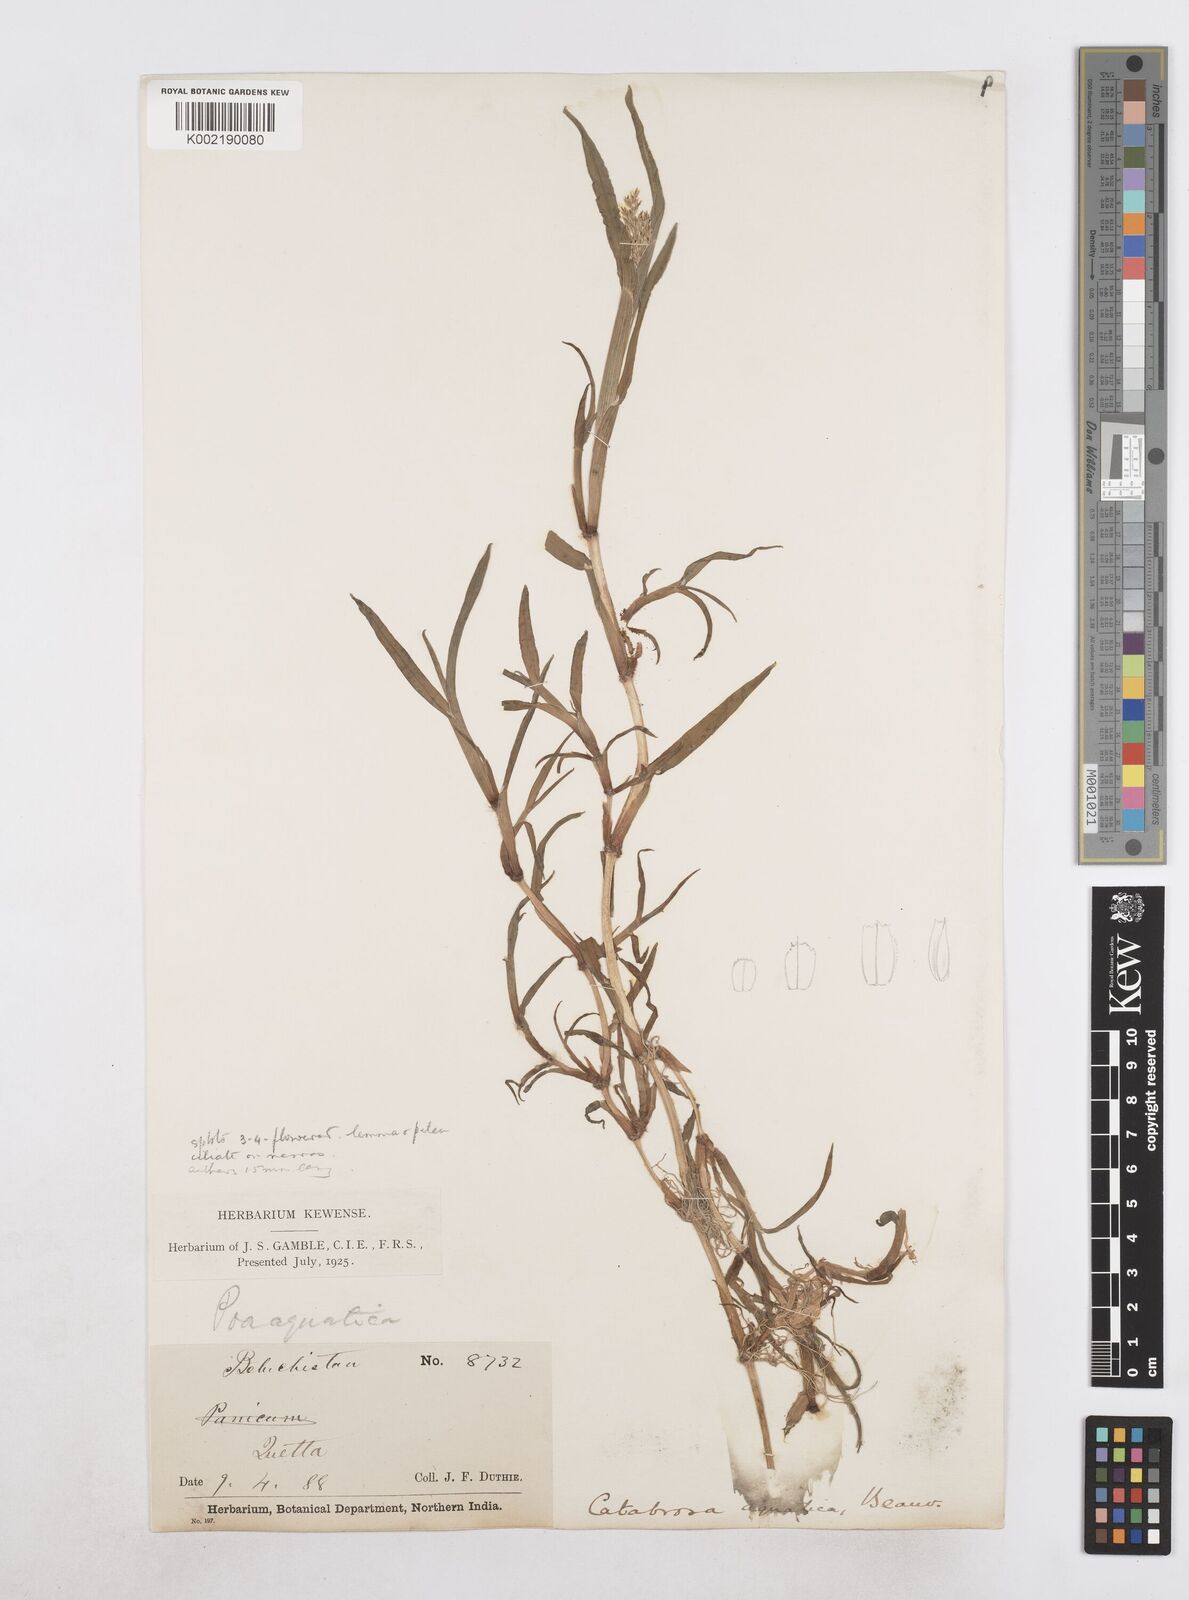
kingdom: Plantae
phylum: Tracheophyta
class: Liliopsida
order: Poales
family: Poaceae
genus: Catabrosa
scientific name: Catabrosa aquatica
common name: Whorl-grass
